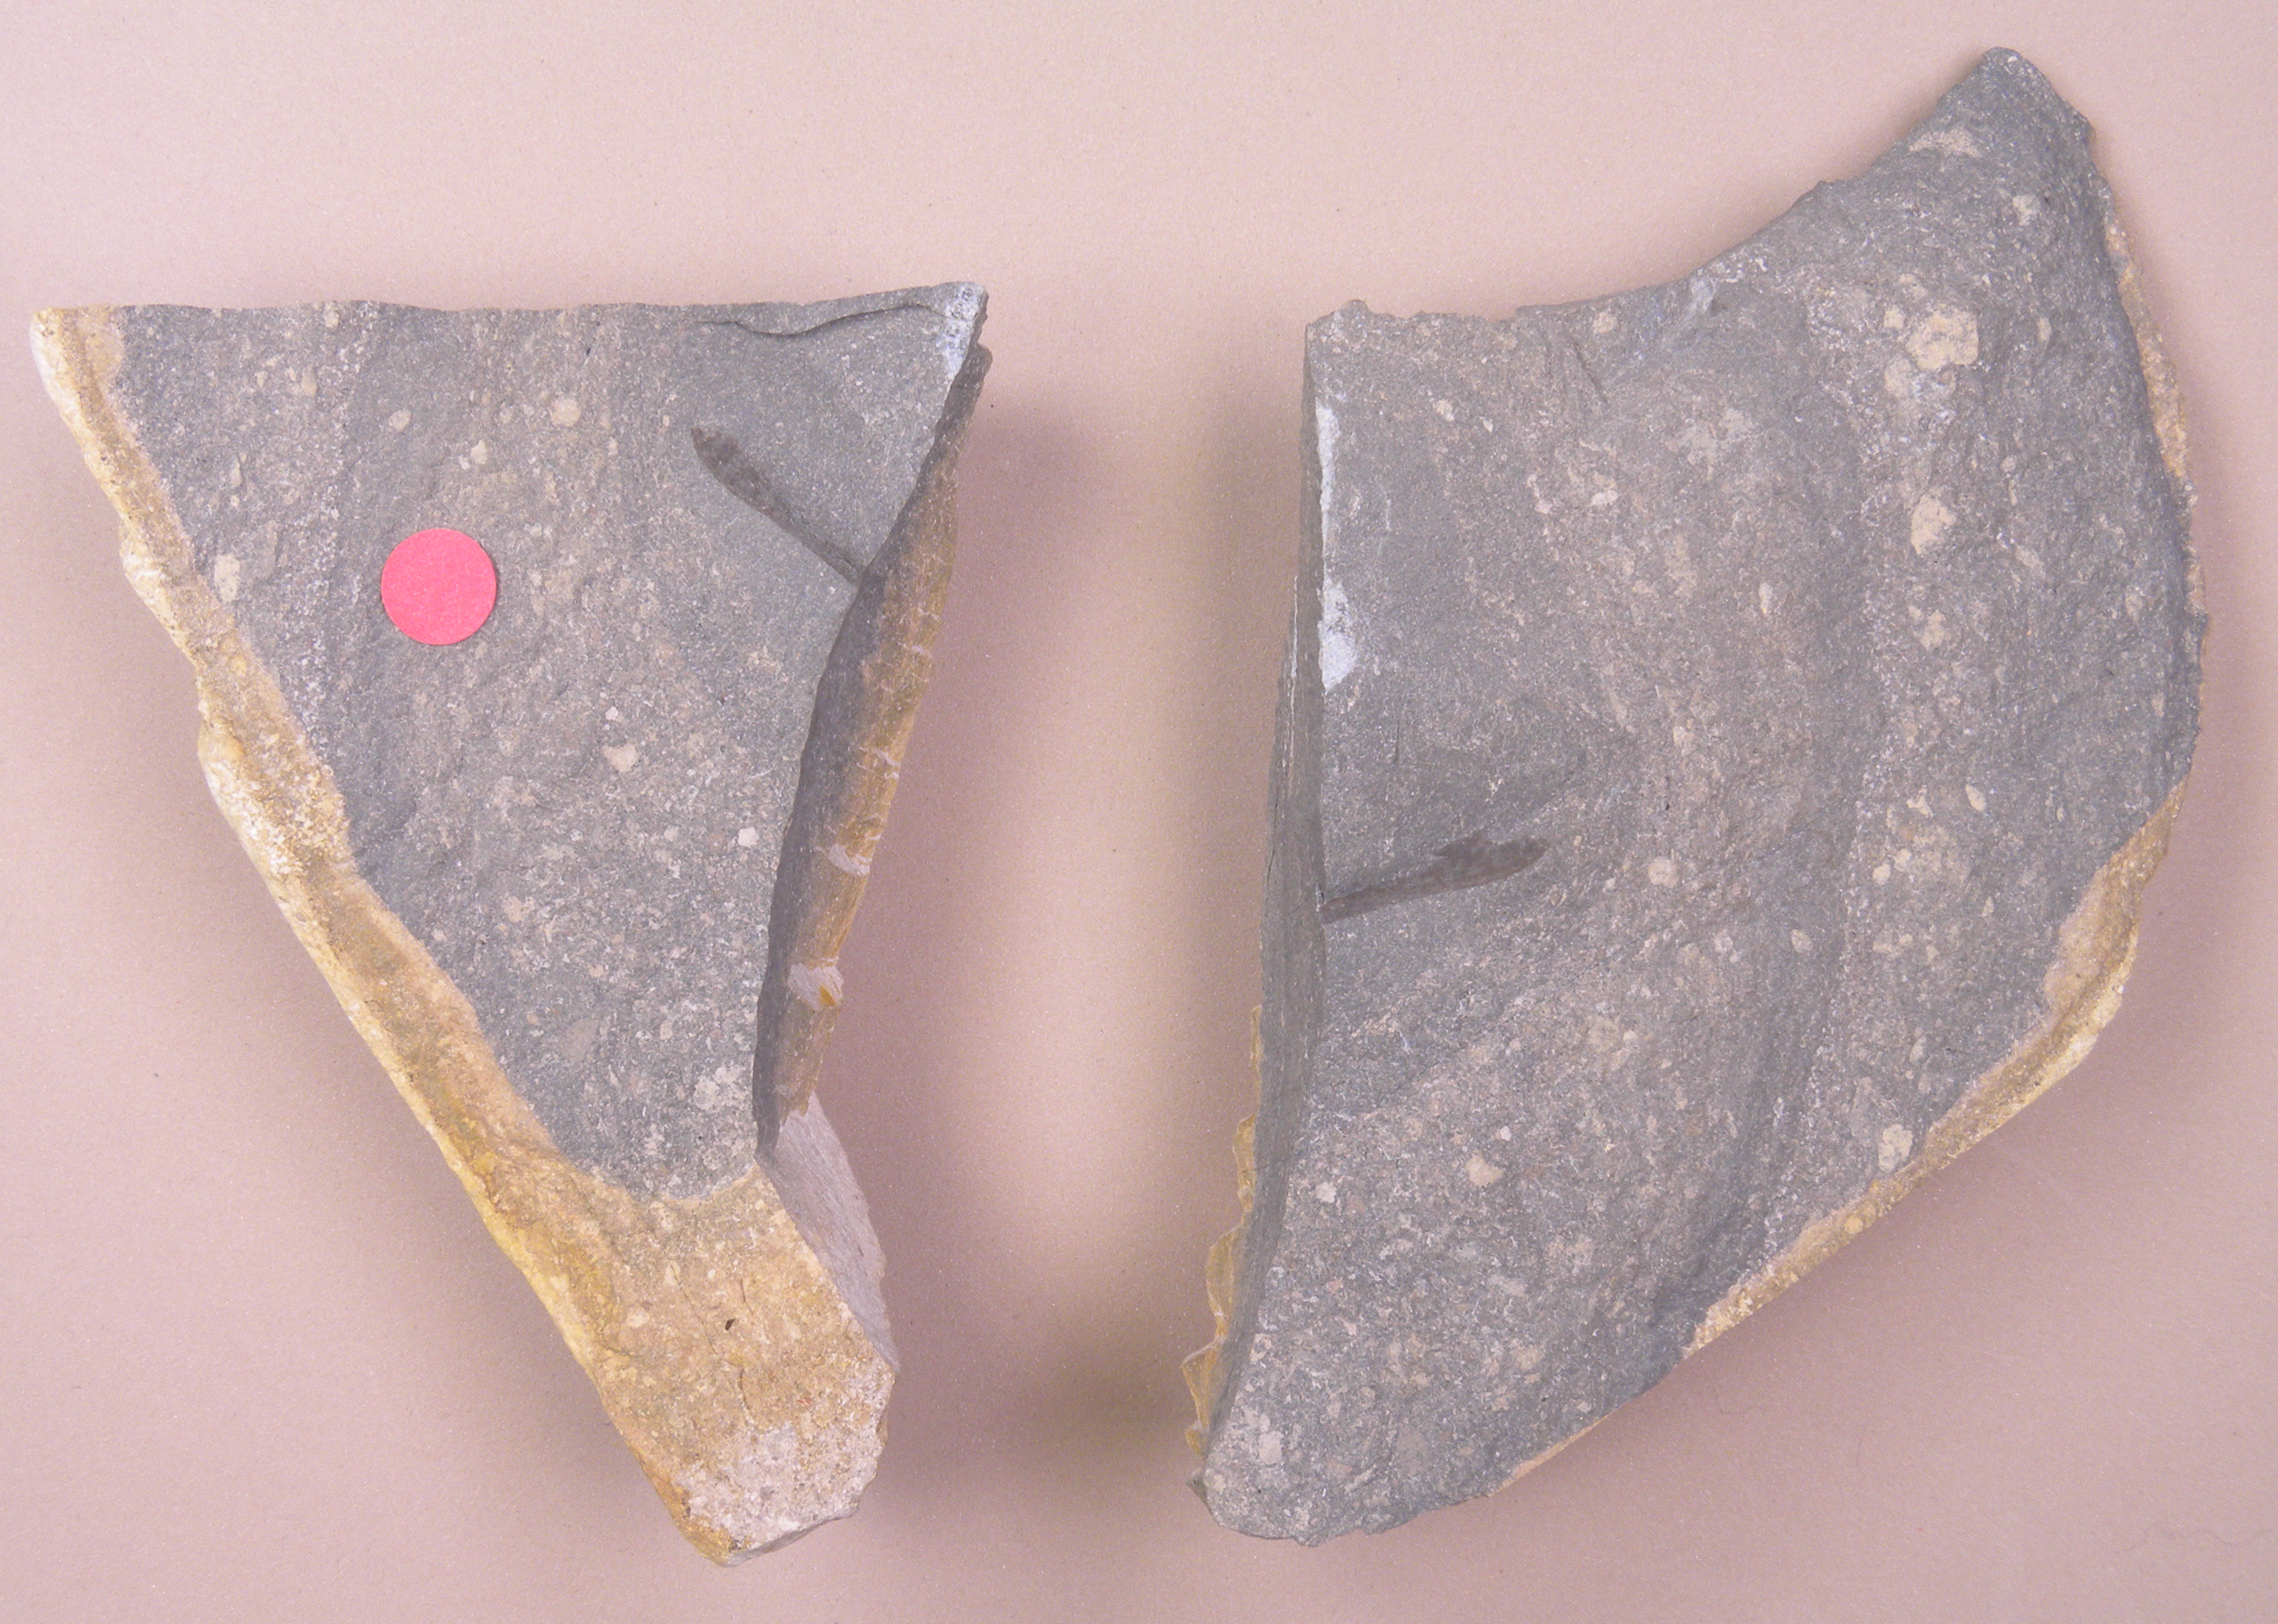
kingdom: Animalia
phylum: Arthropoda
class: Insecta
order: Orthoptera
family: Elcanidae
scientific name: Elcanidae
